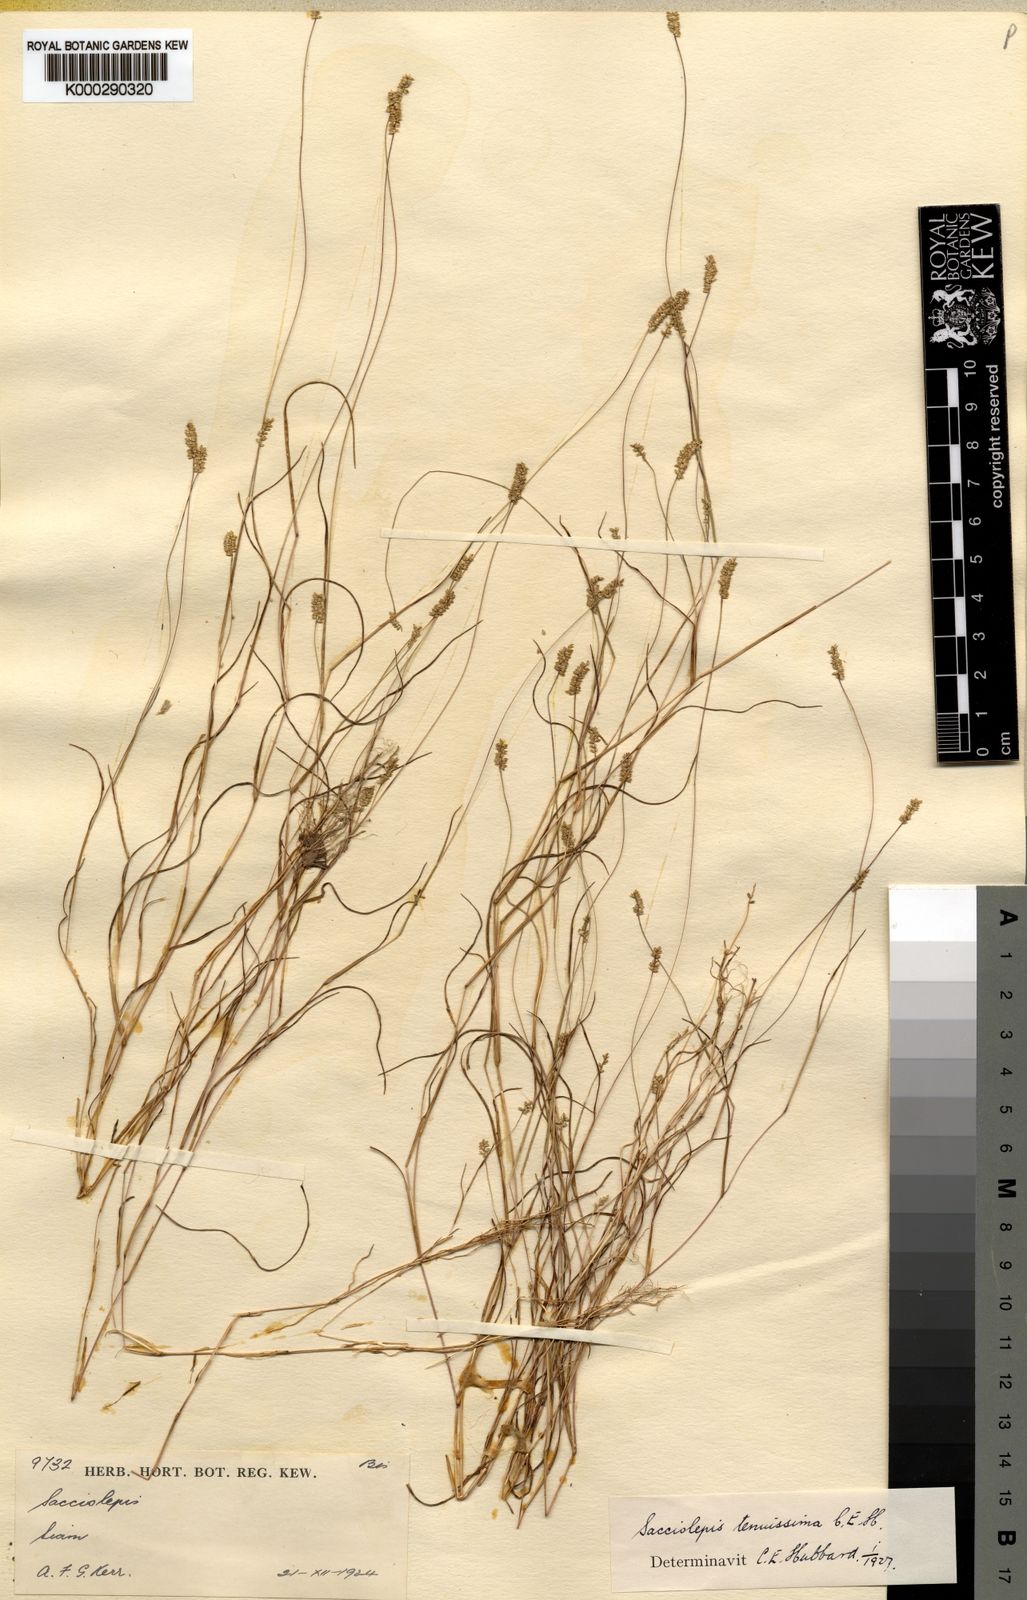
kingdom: Plantae
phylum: Tracheophyta
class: Liliopsida
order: Poales
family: Poaceae
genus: Sacciolepis
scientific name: Sacciolepis tenuissima
